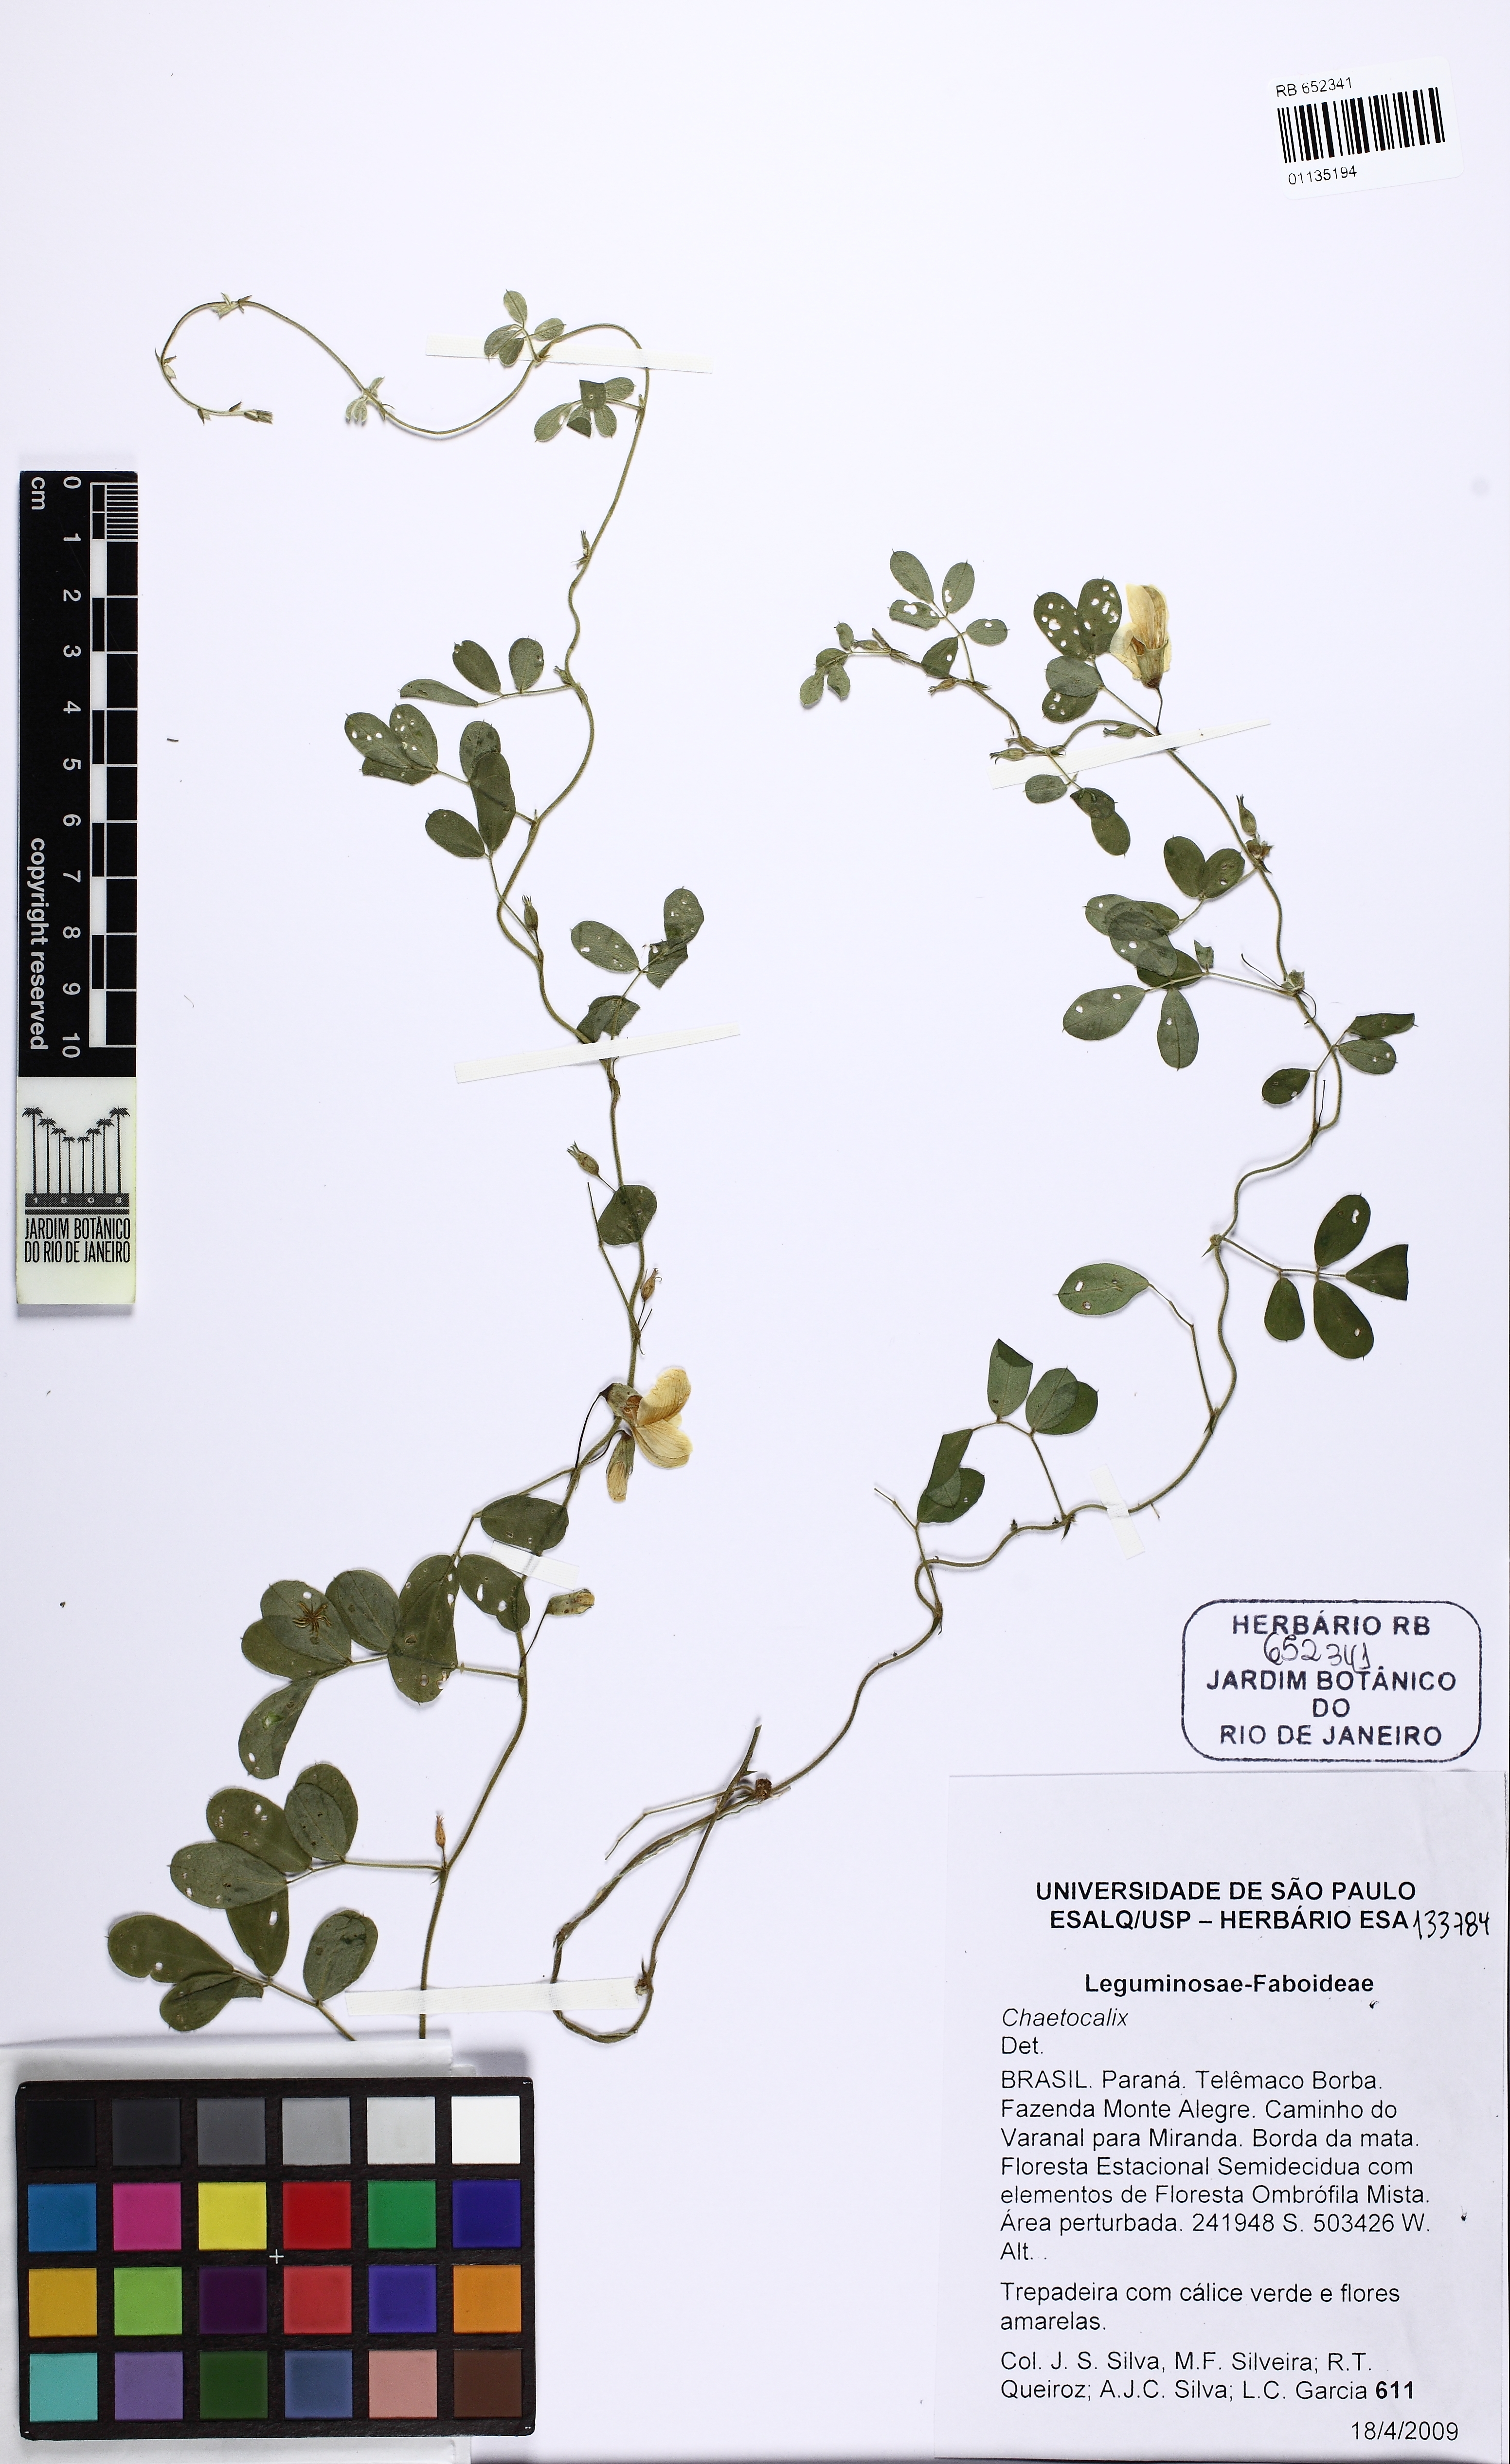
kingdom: Plantae
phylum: Tracheophyta
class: Magnoliopsida
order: Fabales
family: Fabaceae
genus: Nissolia
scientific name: Nissolia brasiliensis
